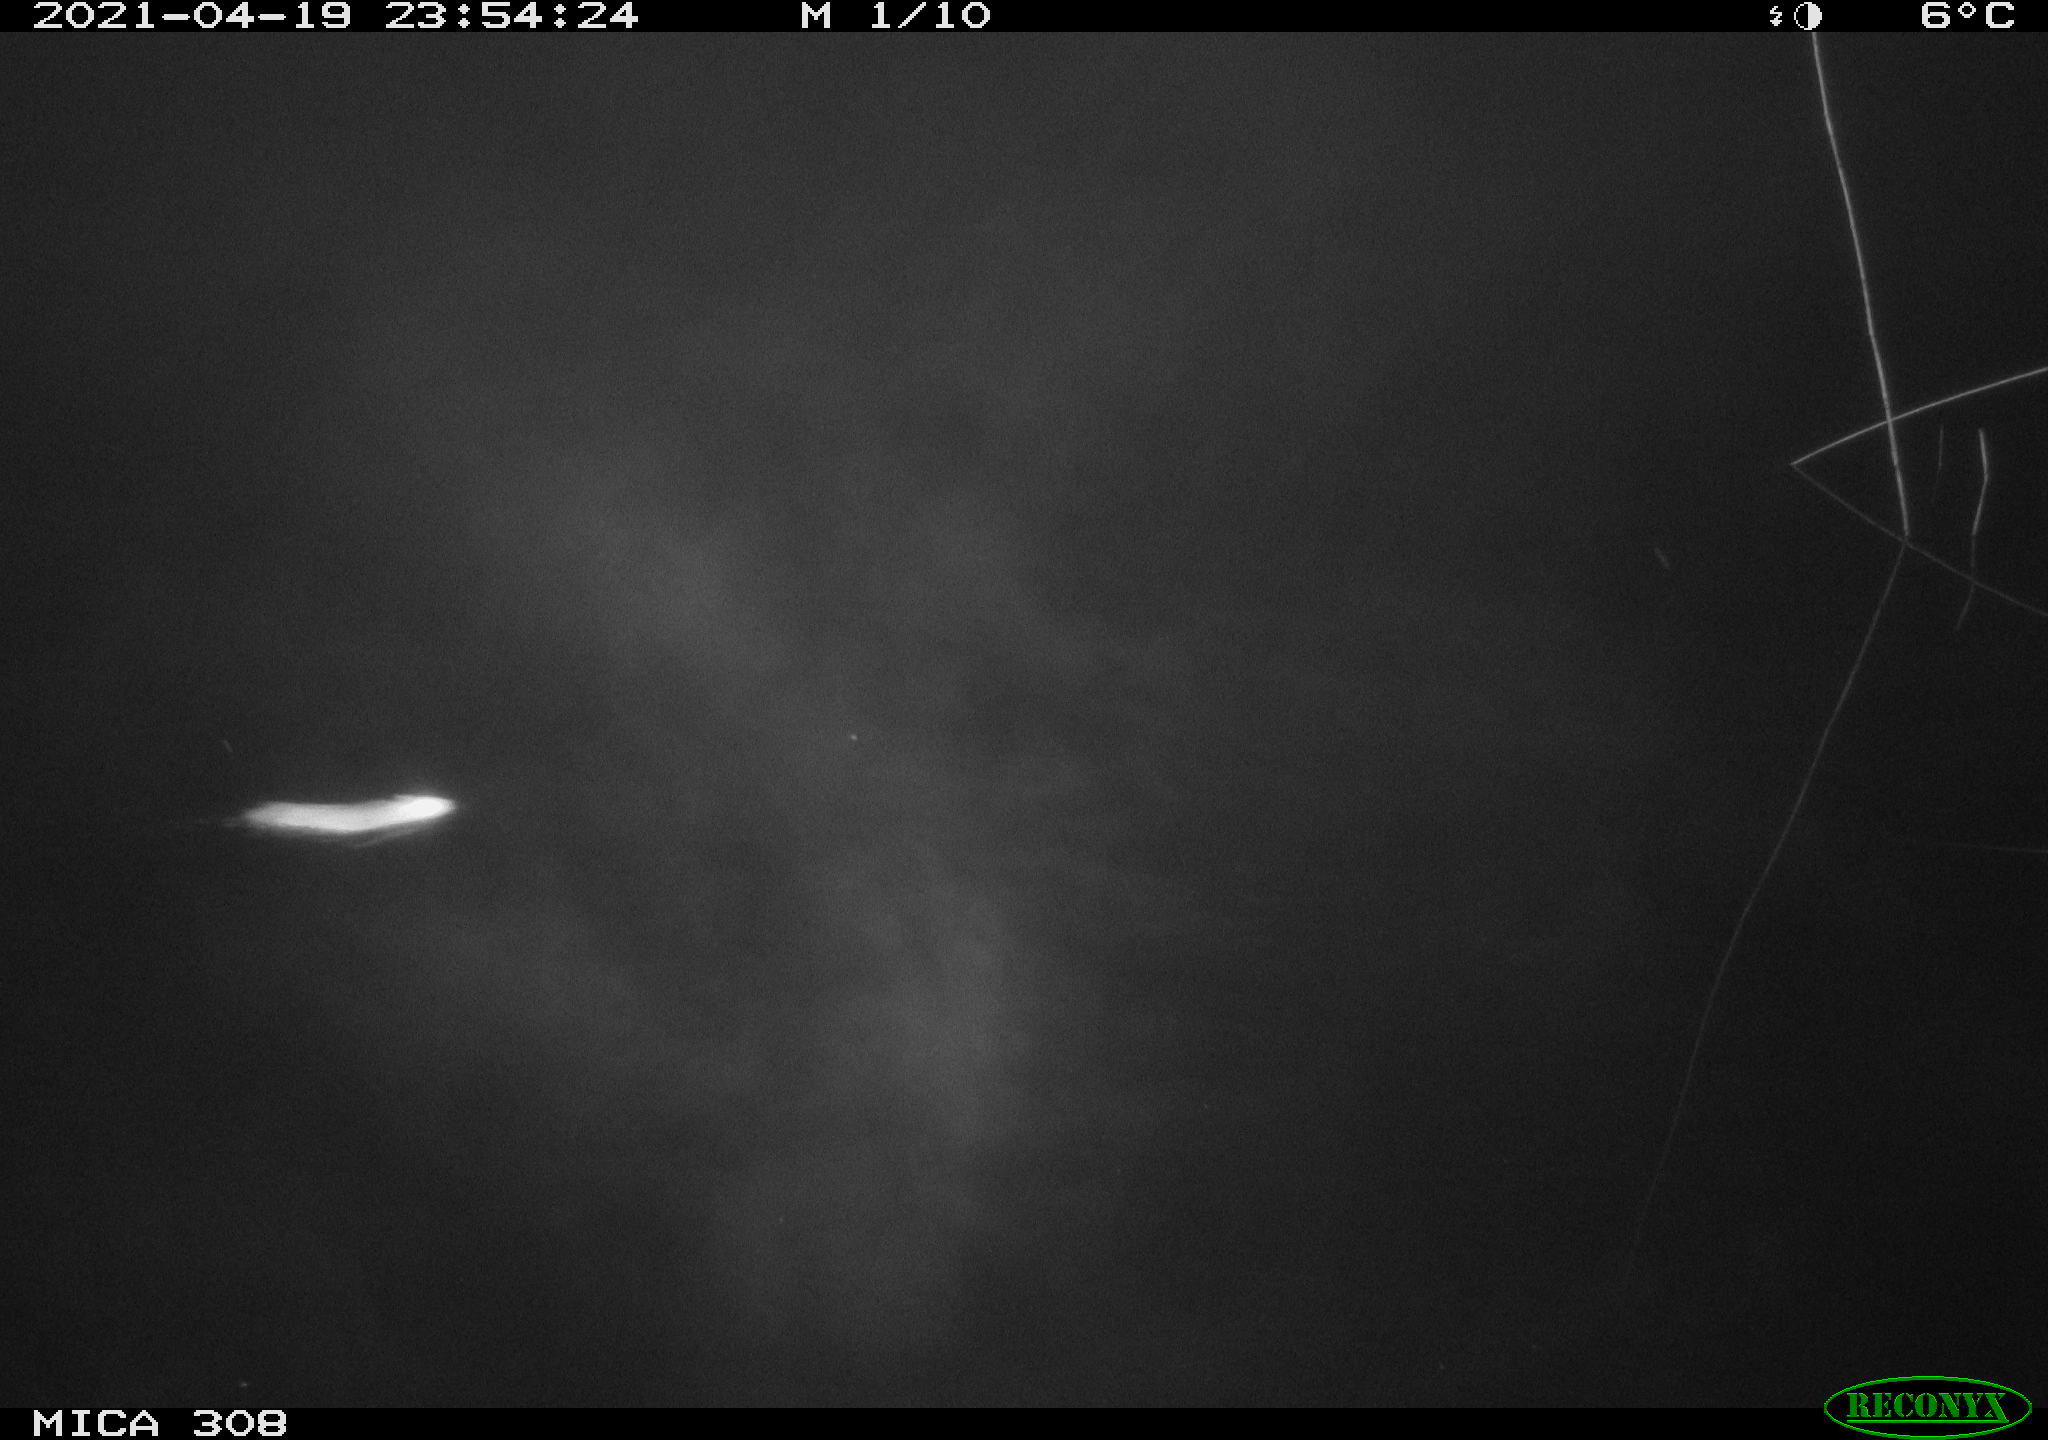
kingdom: Animalia
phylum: Chordata
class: Mammalia
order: Rodentia
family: Muridae
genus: Rattus
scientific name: Rattus norvegicus
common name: Brown rat
